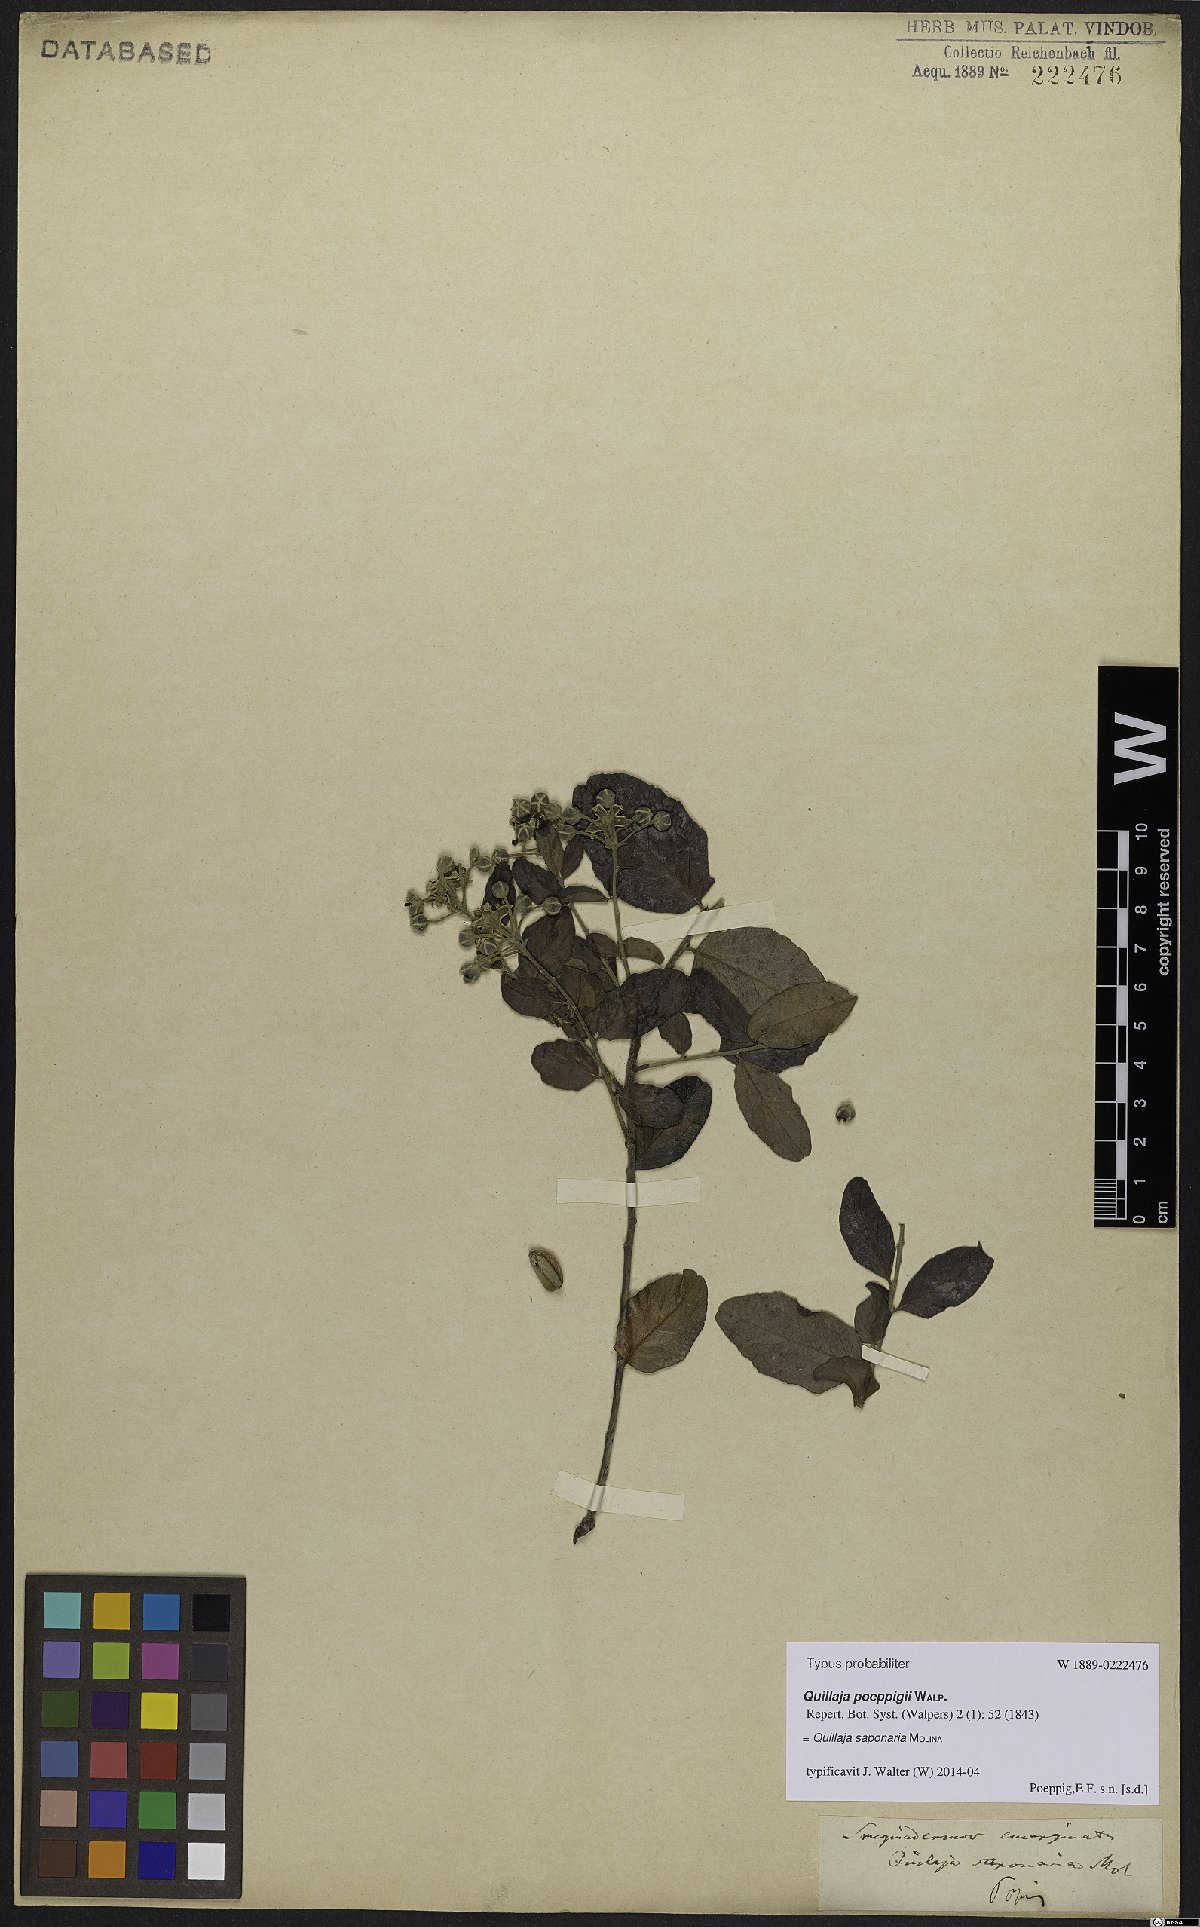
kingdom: Plantae
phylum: Tracheophyta
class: Magnoliopsida
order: Fabales
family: Quillajaceae
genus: Quillaja
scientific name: Quillaja saponaria
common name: Murillo's-bark
